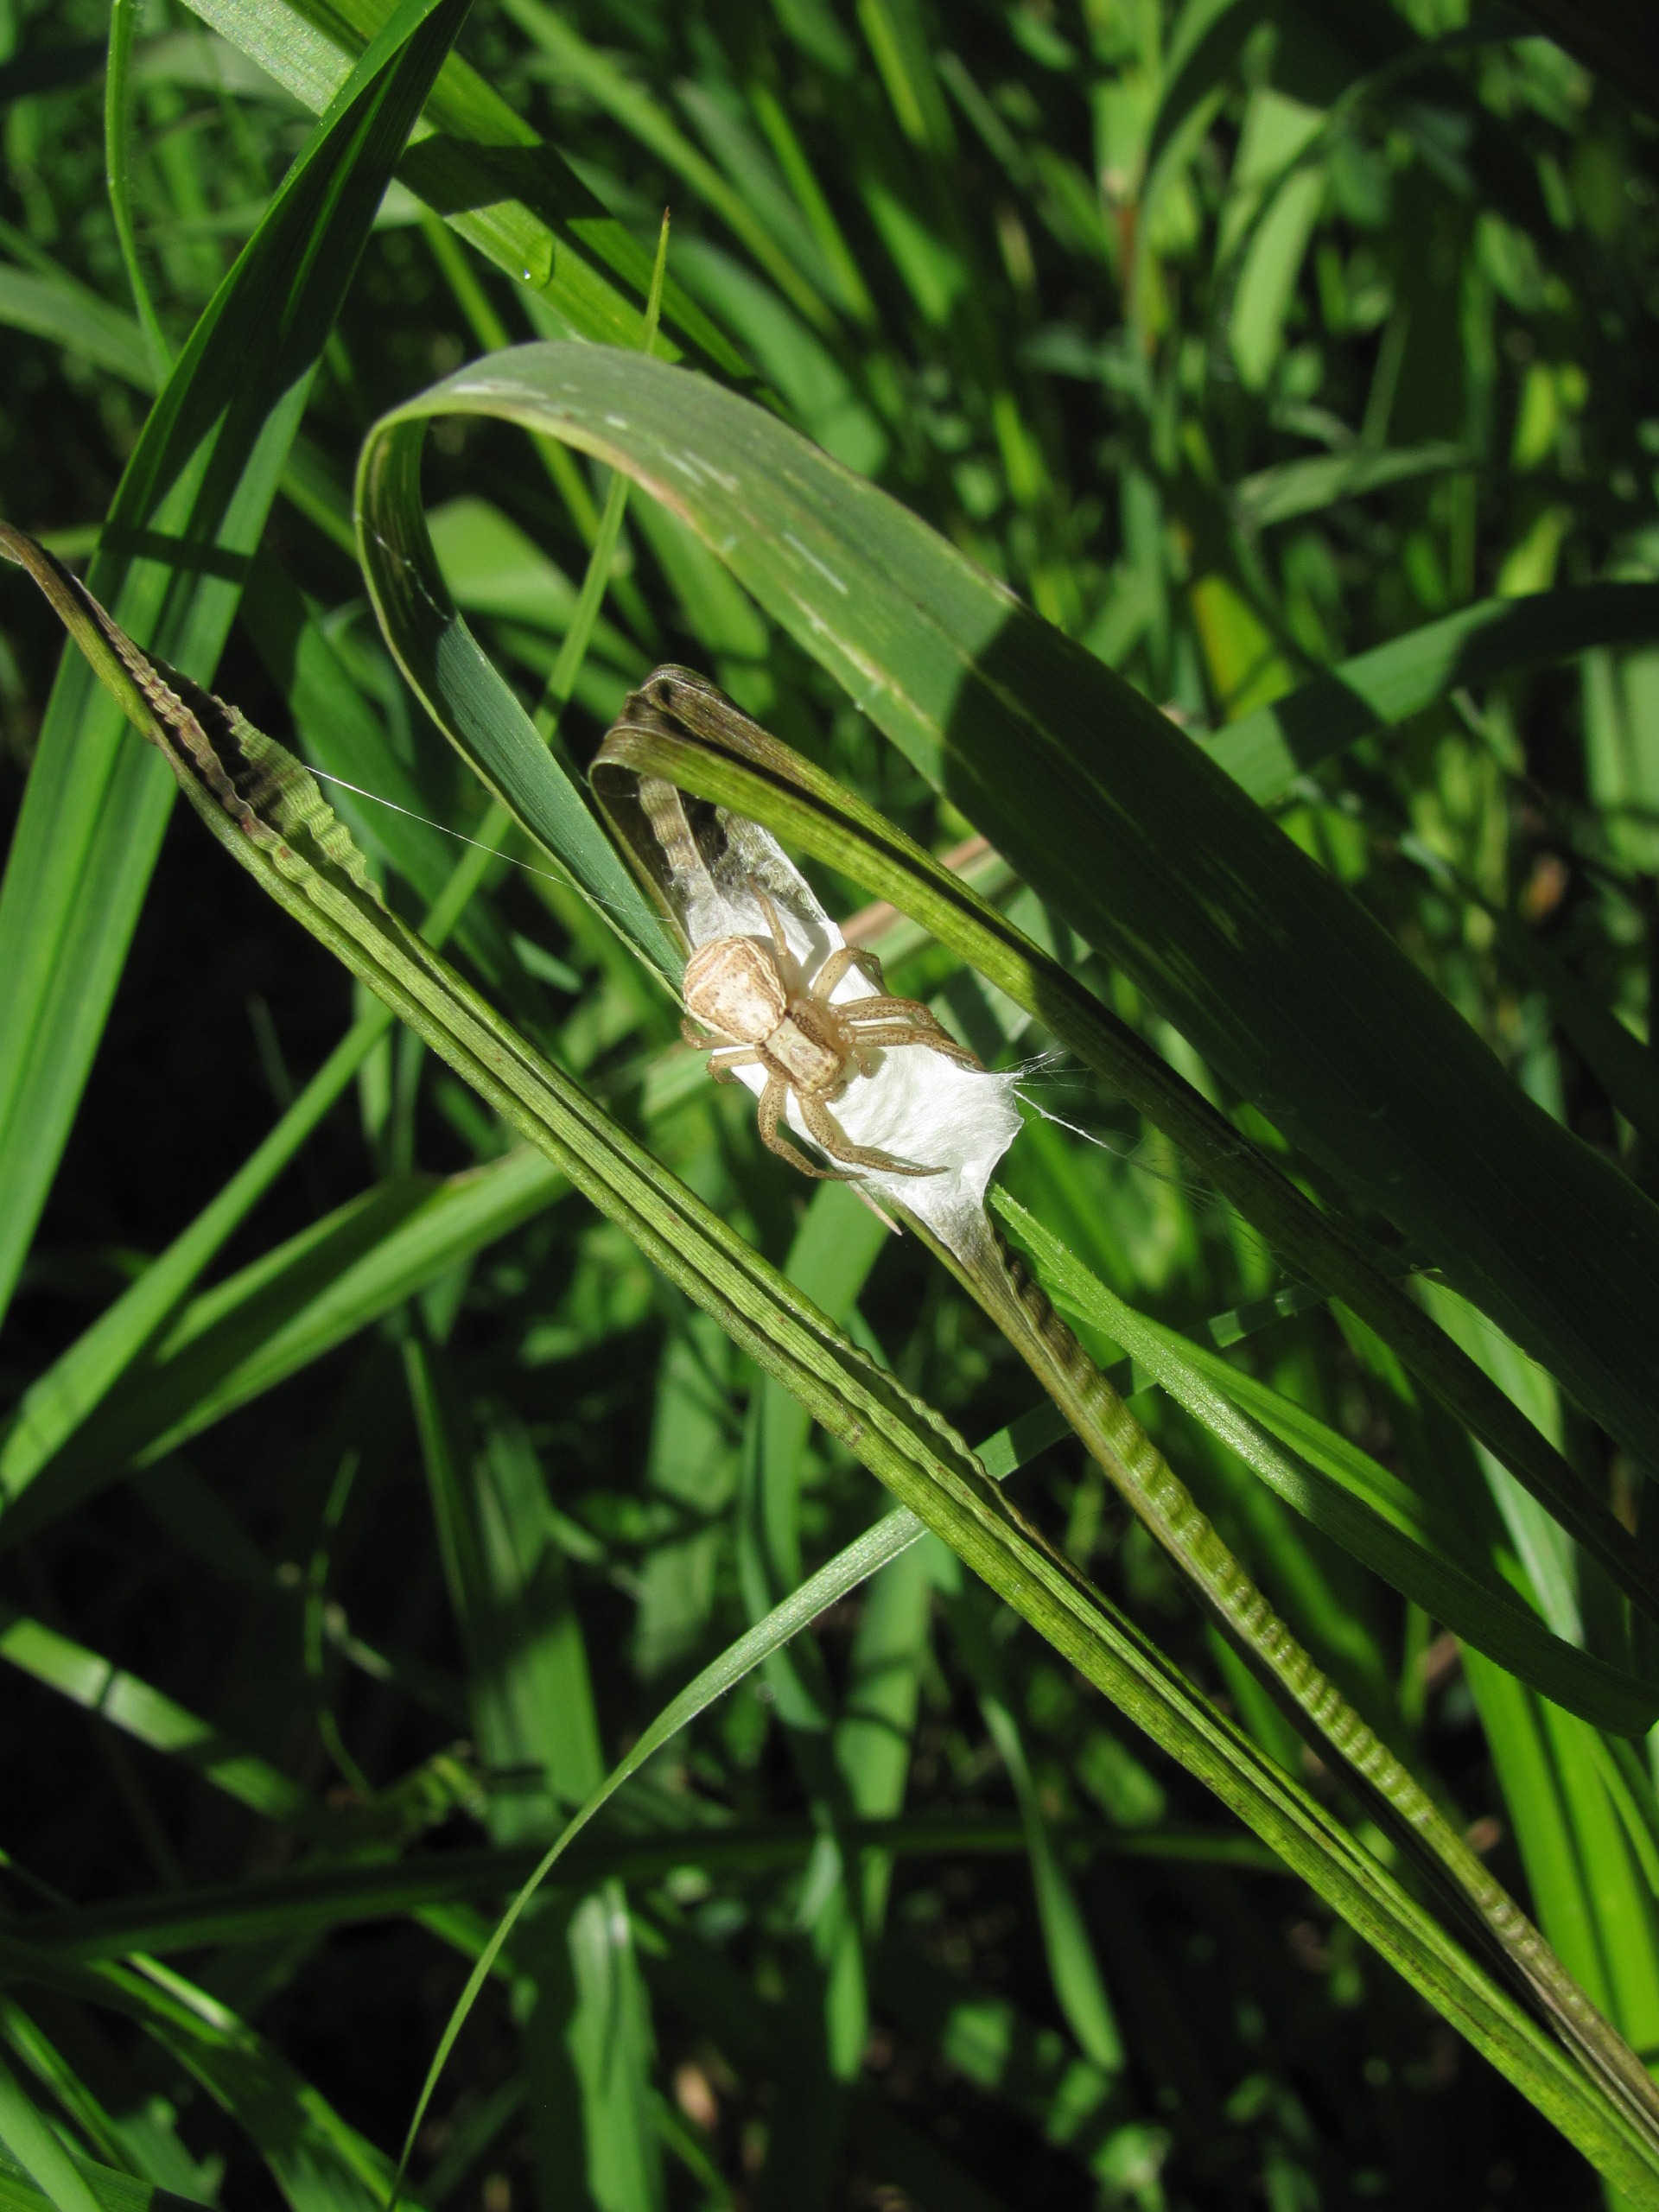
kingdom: Animalia
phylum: Arthropoda
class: Arachnida
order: Araneae
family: Thomisidae
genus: Xysticus
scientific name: Xysticus ulmi
